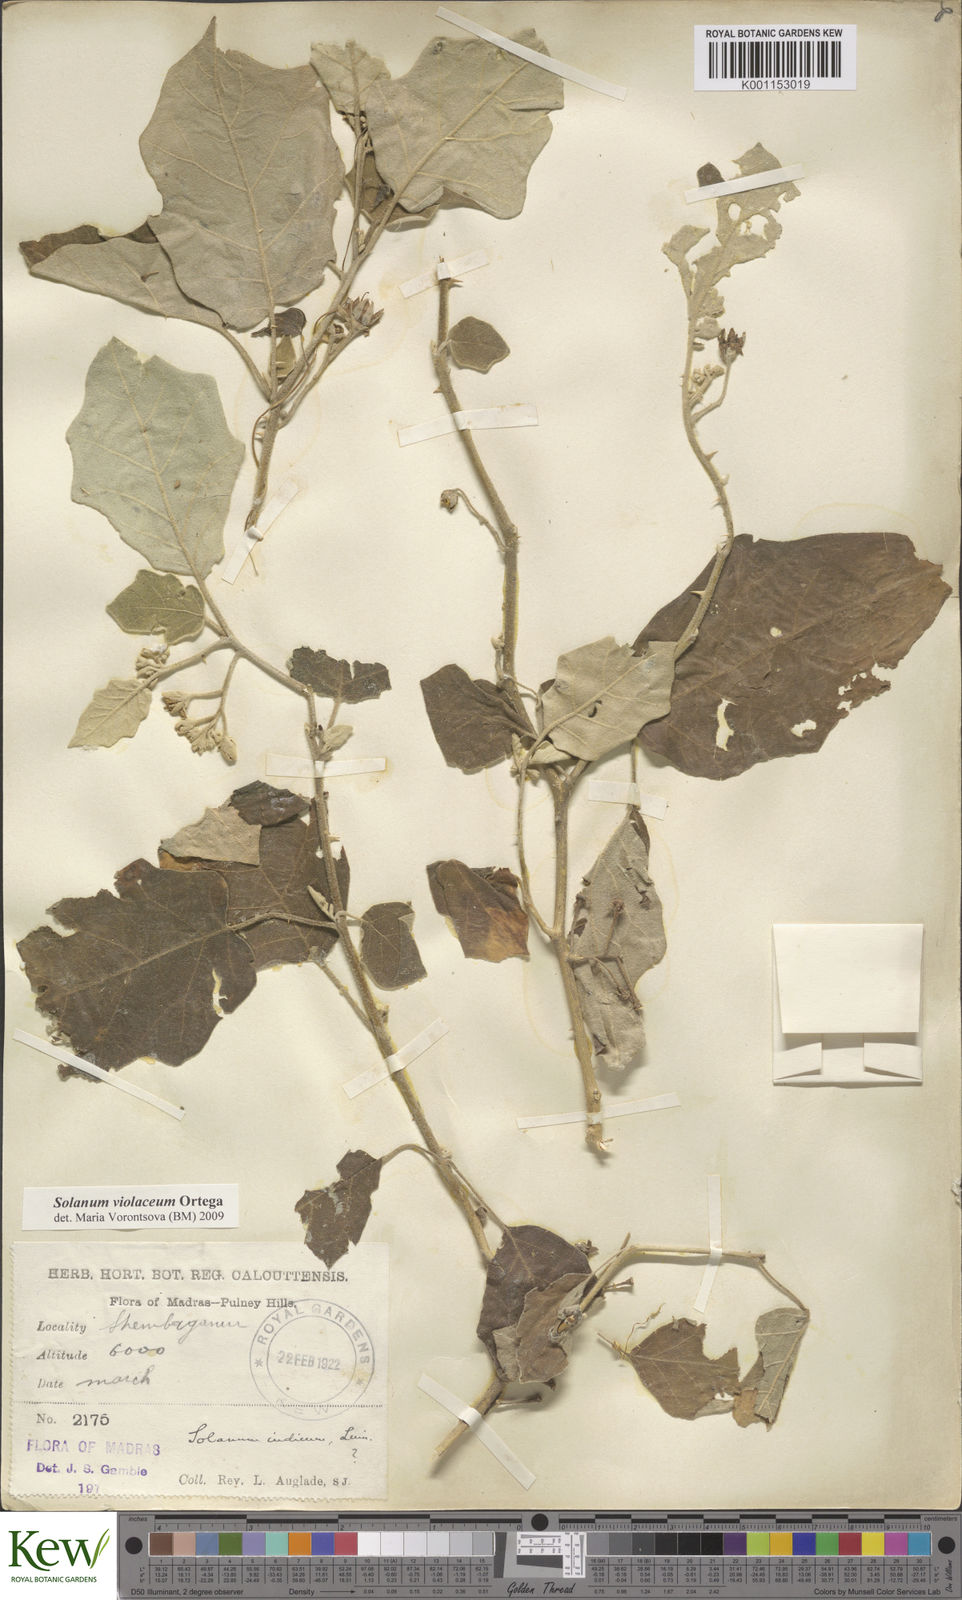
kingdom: Plantae
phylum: Tracheophyta
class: Magnoliopsida
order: Solanales
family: Solanaceae
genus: Solanum
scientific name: Solanum violaceum
